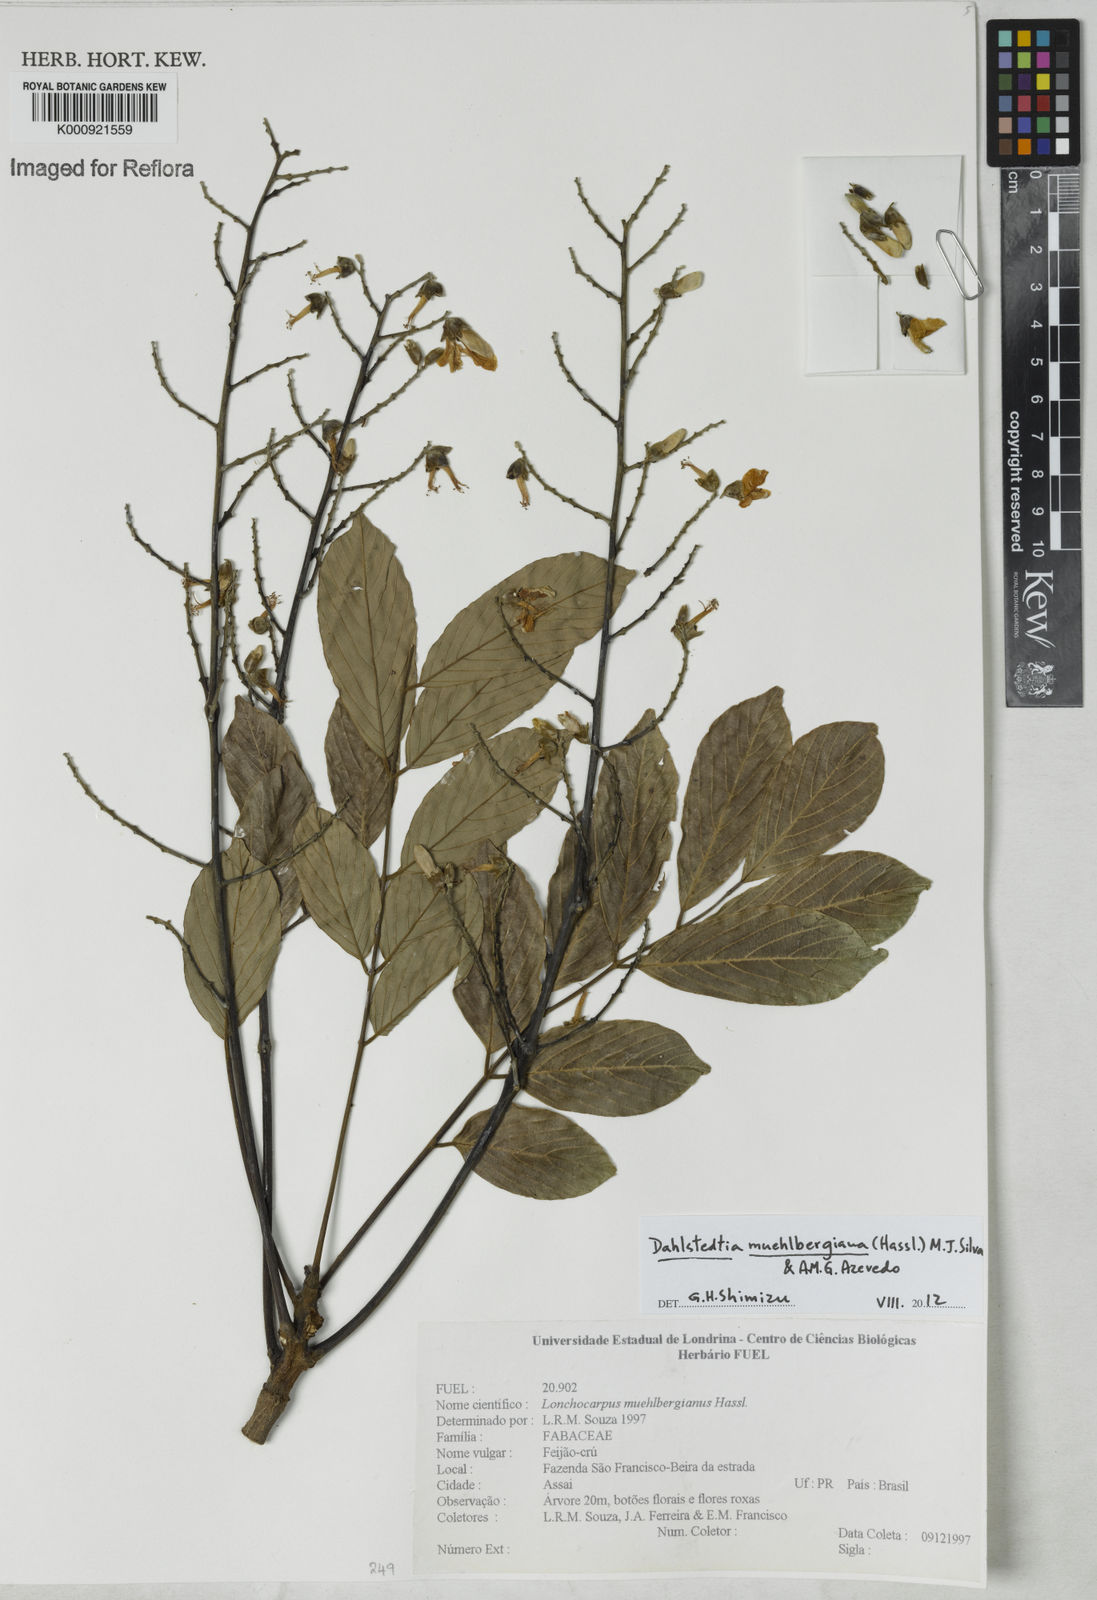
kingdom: Plantae
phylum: Tracheophyta
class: Magnoliopsida
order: Fabales
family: Fabaceae
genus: Dahlstedtia
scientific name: Dahlstedtia muehlbergiana
